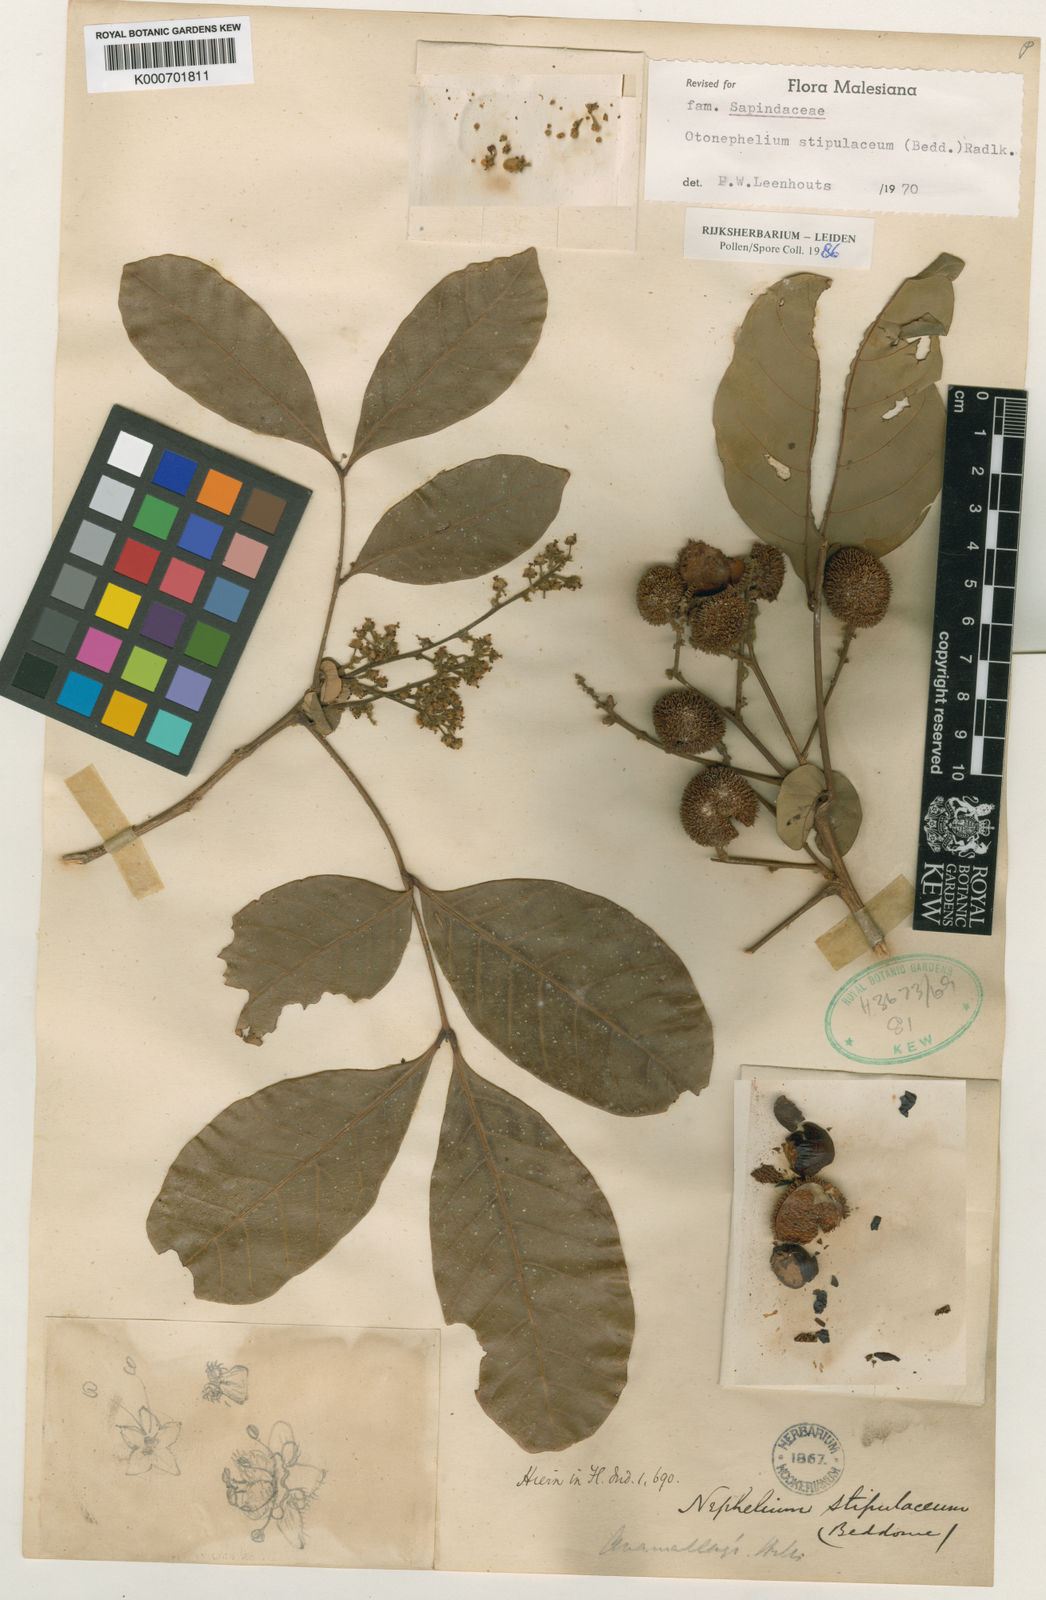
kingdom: Plantae
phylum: Tracheophyta
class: Magnoliopsida
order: Sapindales
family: Sapindaceae
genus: Otonephelium
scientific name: Otonephelium stipulaceum
